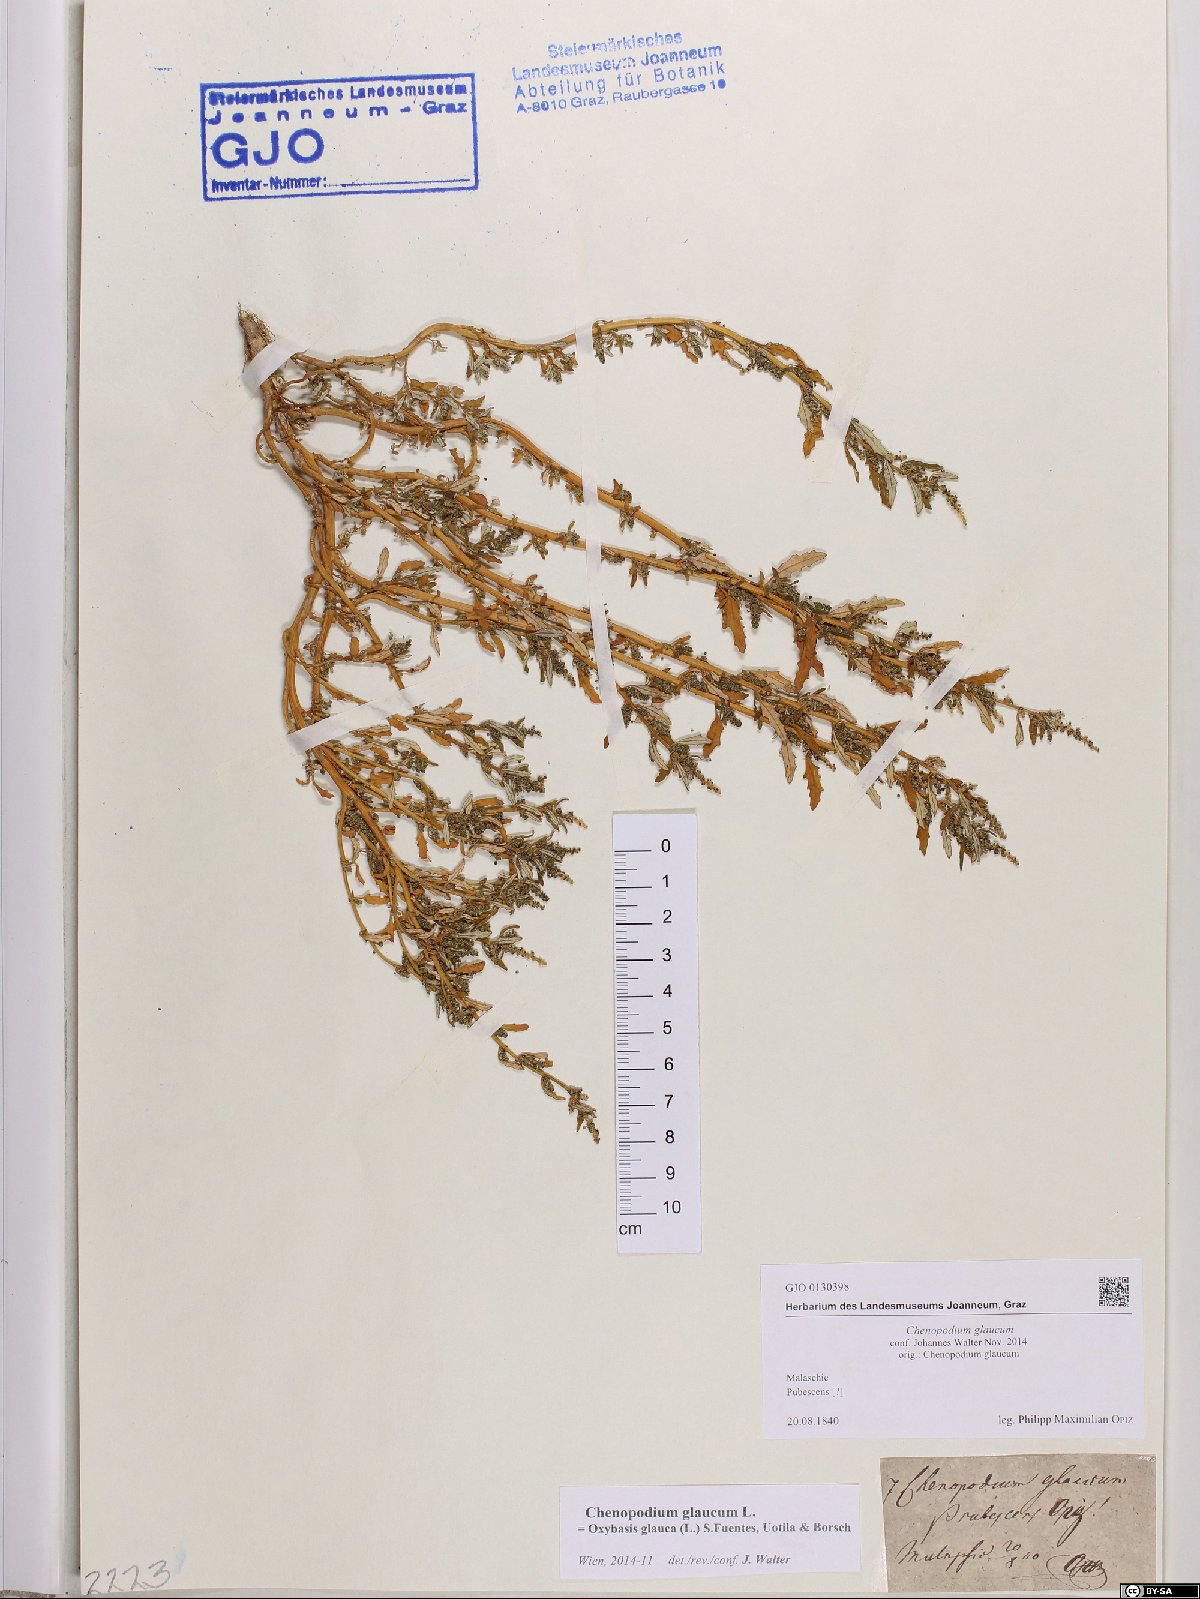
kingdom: Plantae
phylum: Tracheophyta
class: Magnoliopsida
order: Caryophyllales
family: Amaranthaceae
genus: Oxybasis
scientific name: Oxybasis glauca
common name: Glaucous goosefoot
